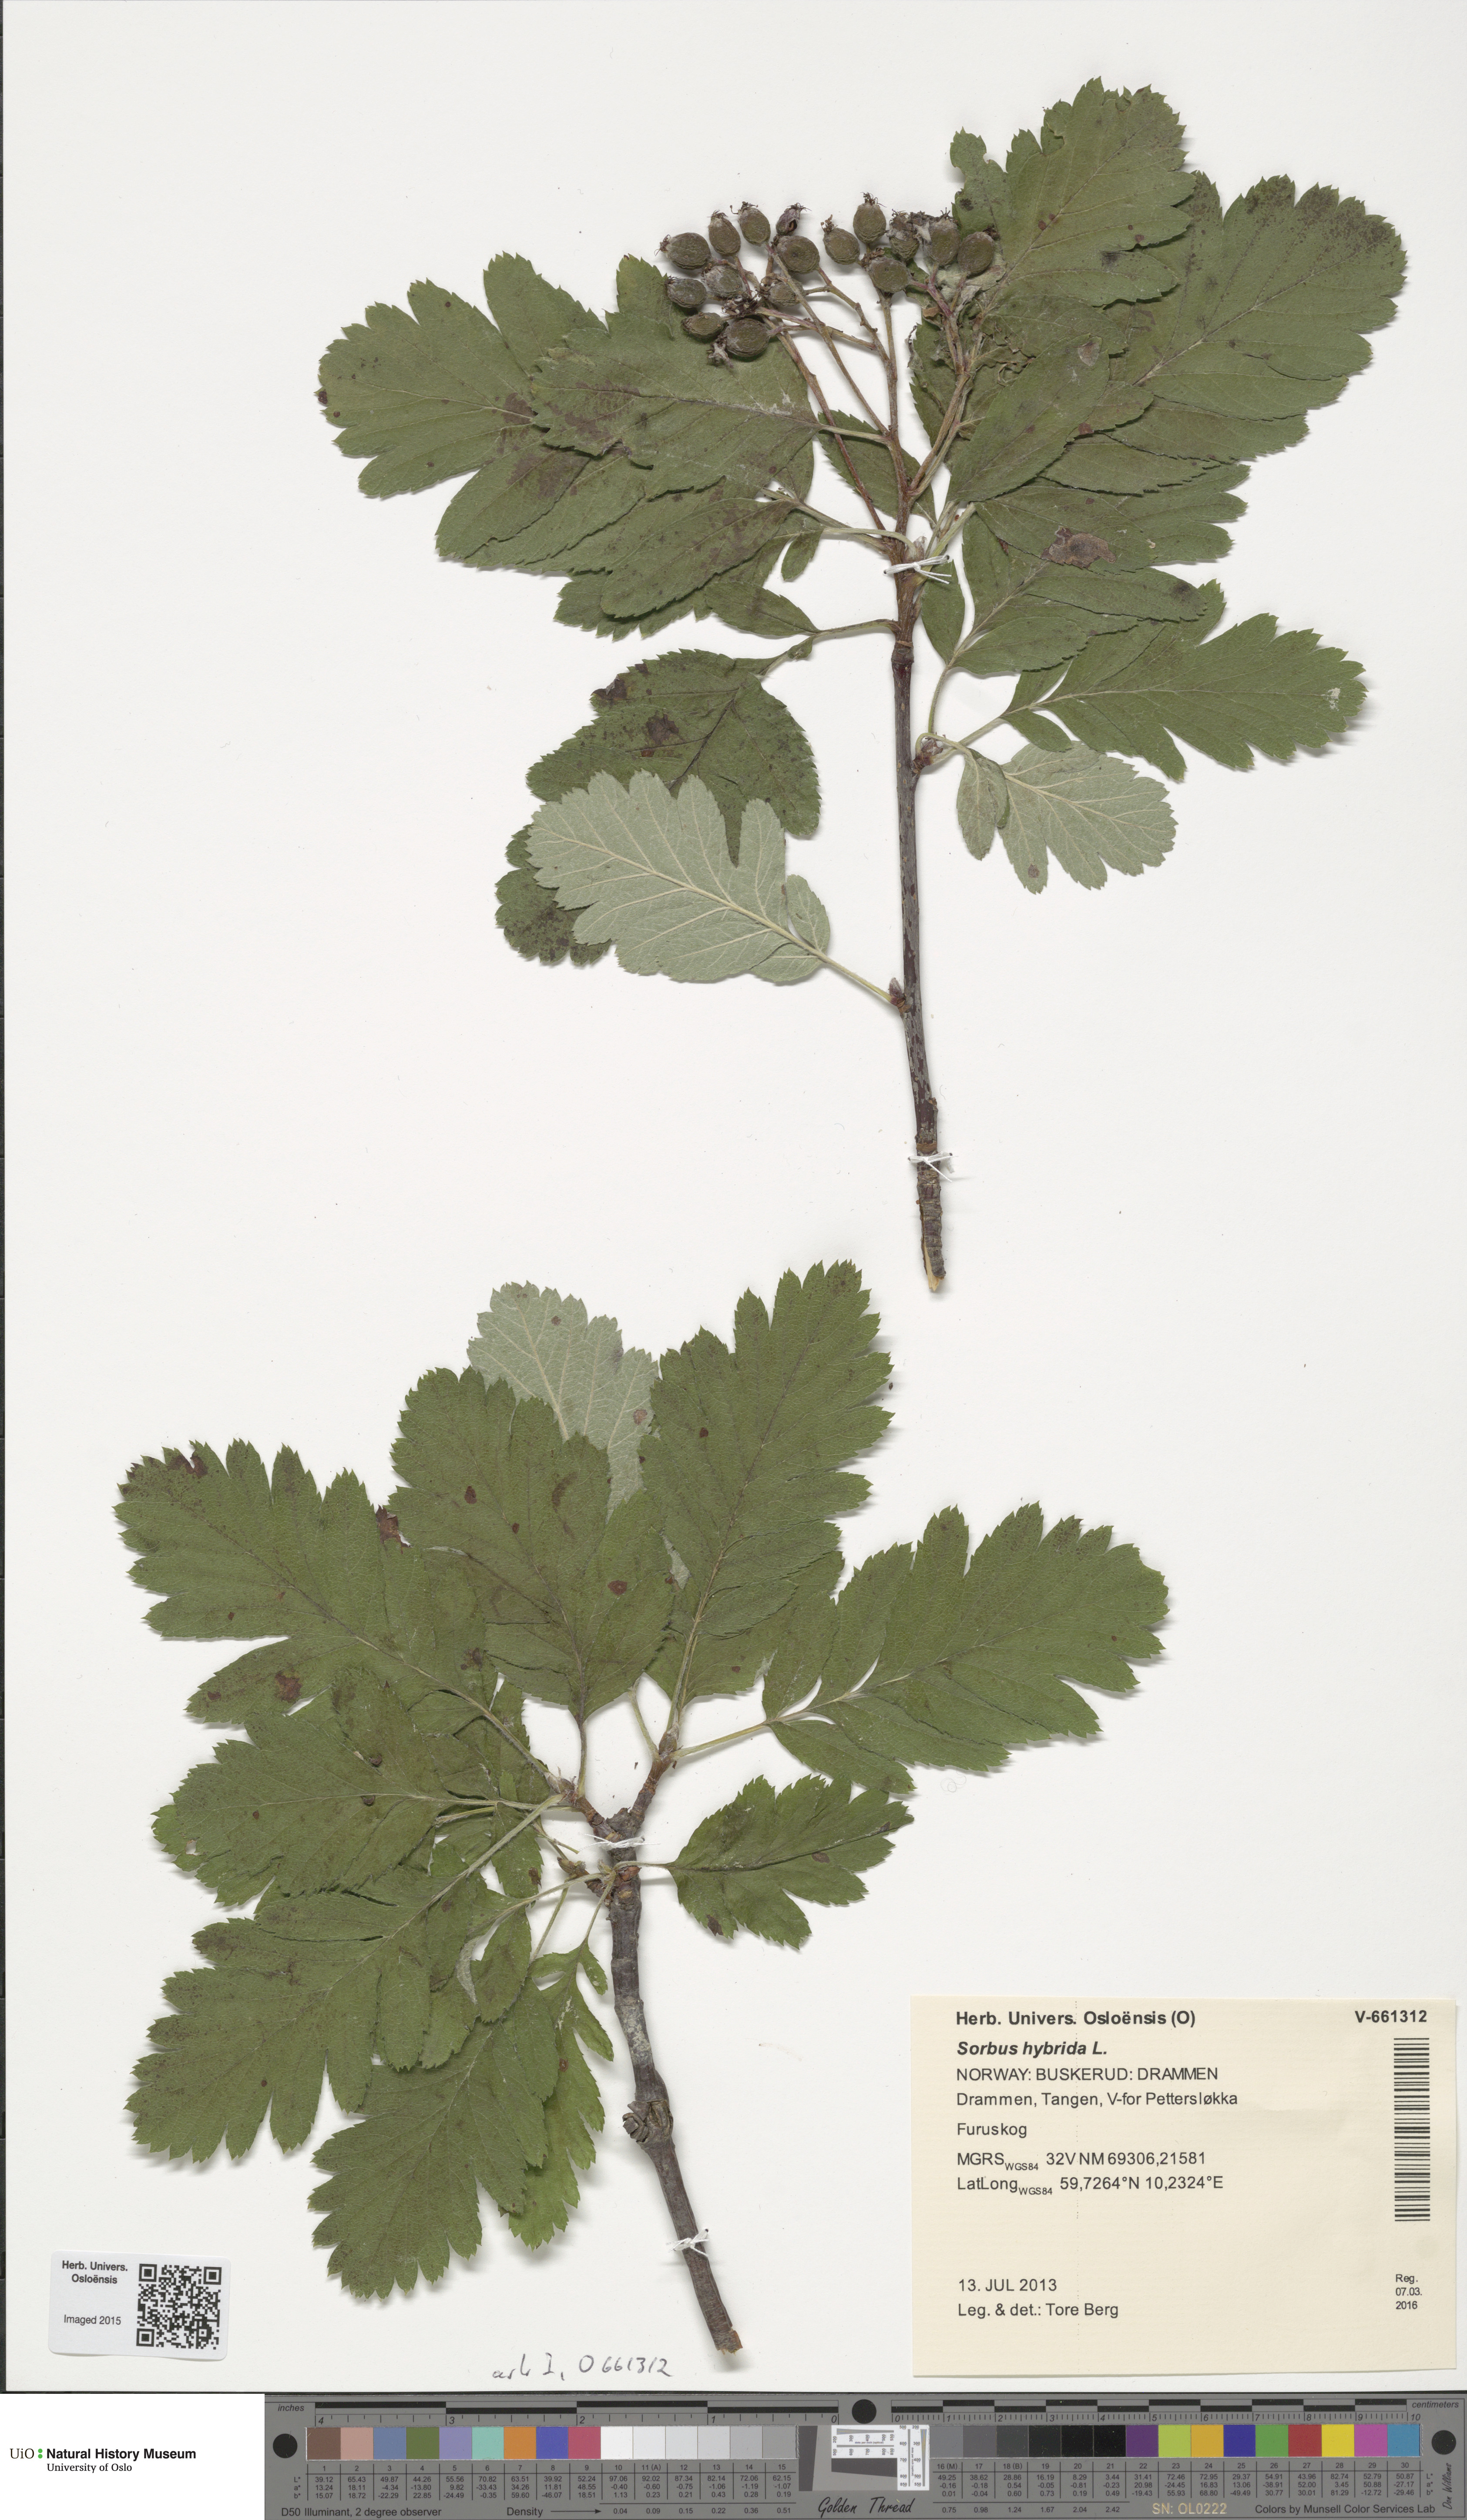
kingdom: Plantae
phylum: Tracheophyta
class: Magnoliopsida
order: Rosales
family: Rosaceae
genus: Hedlundia
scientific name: Hedlundia hybrida
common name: Swedish service-tree
